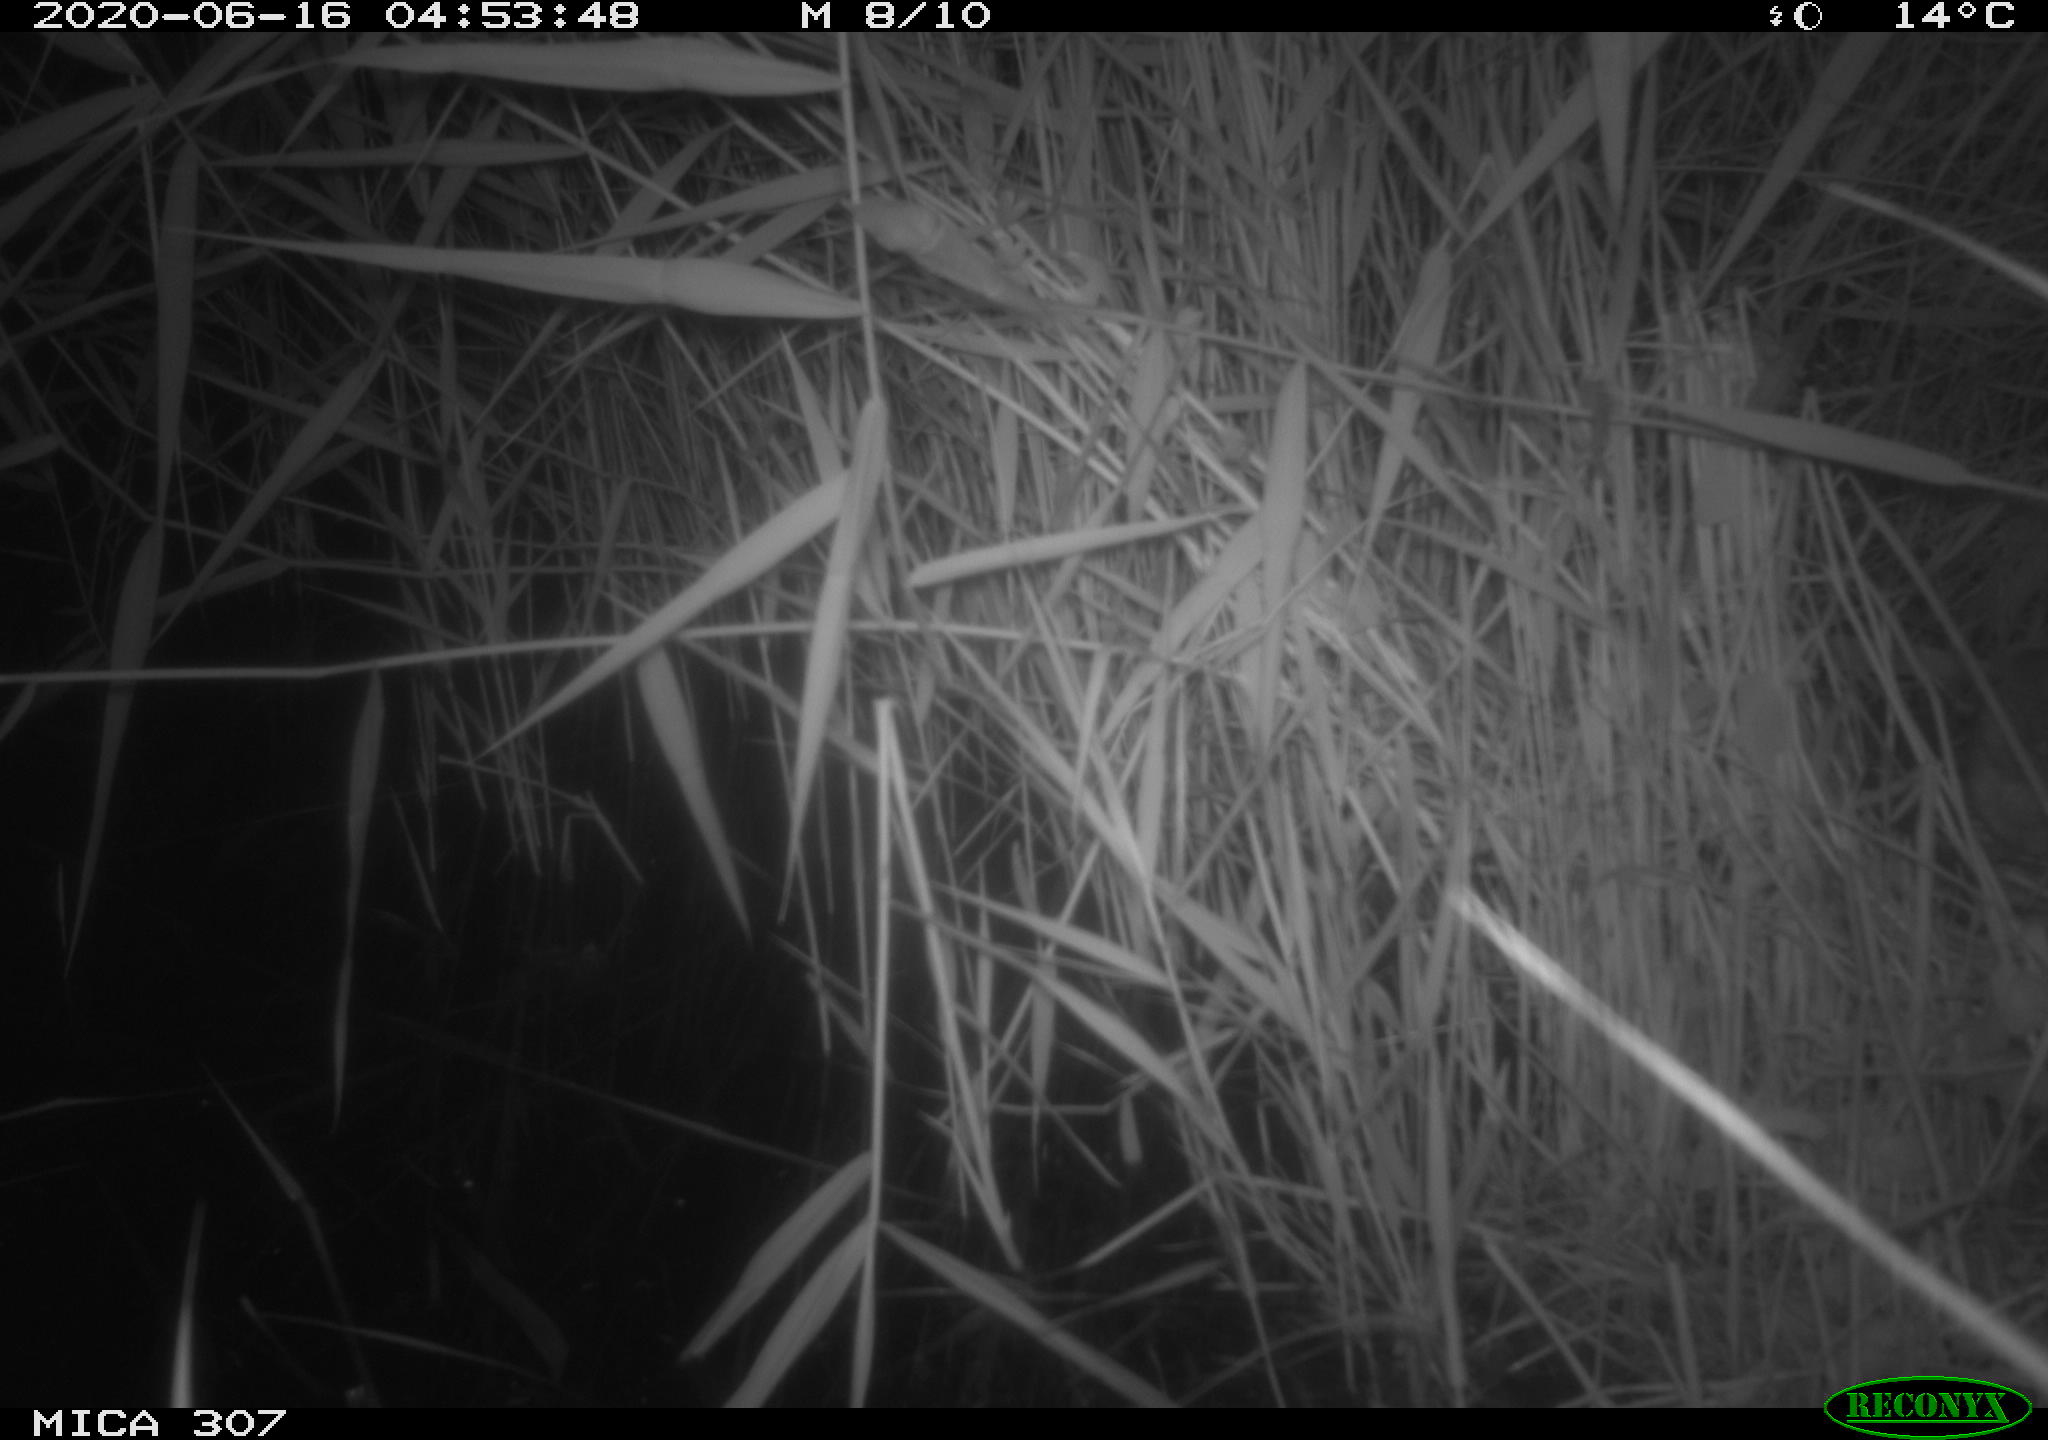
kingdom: Animalia
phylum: Chordata
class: Mammalia
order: Rodentia
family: Muridae
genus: Rattus
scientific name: Rattus norvegicus
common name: Brown rat
